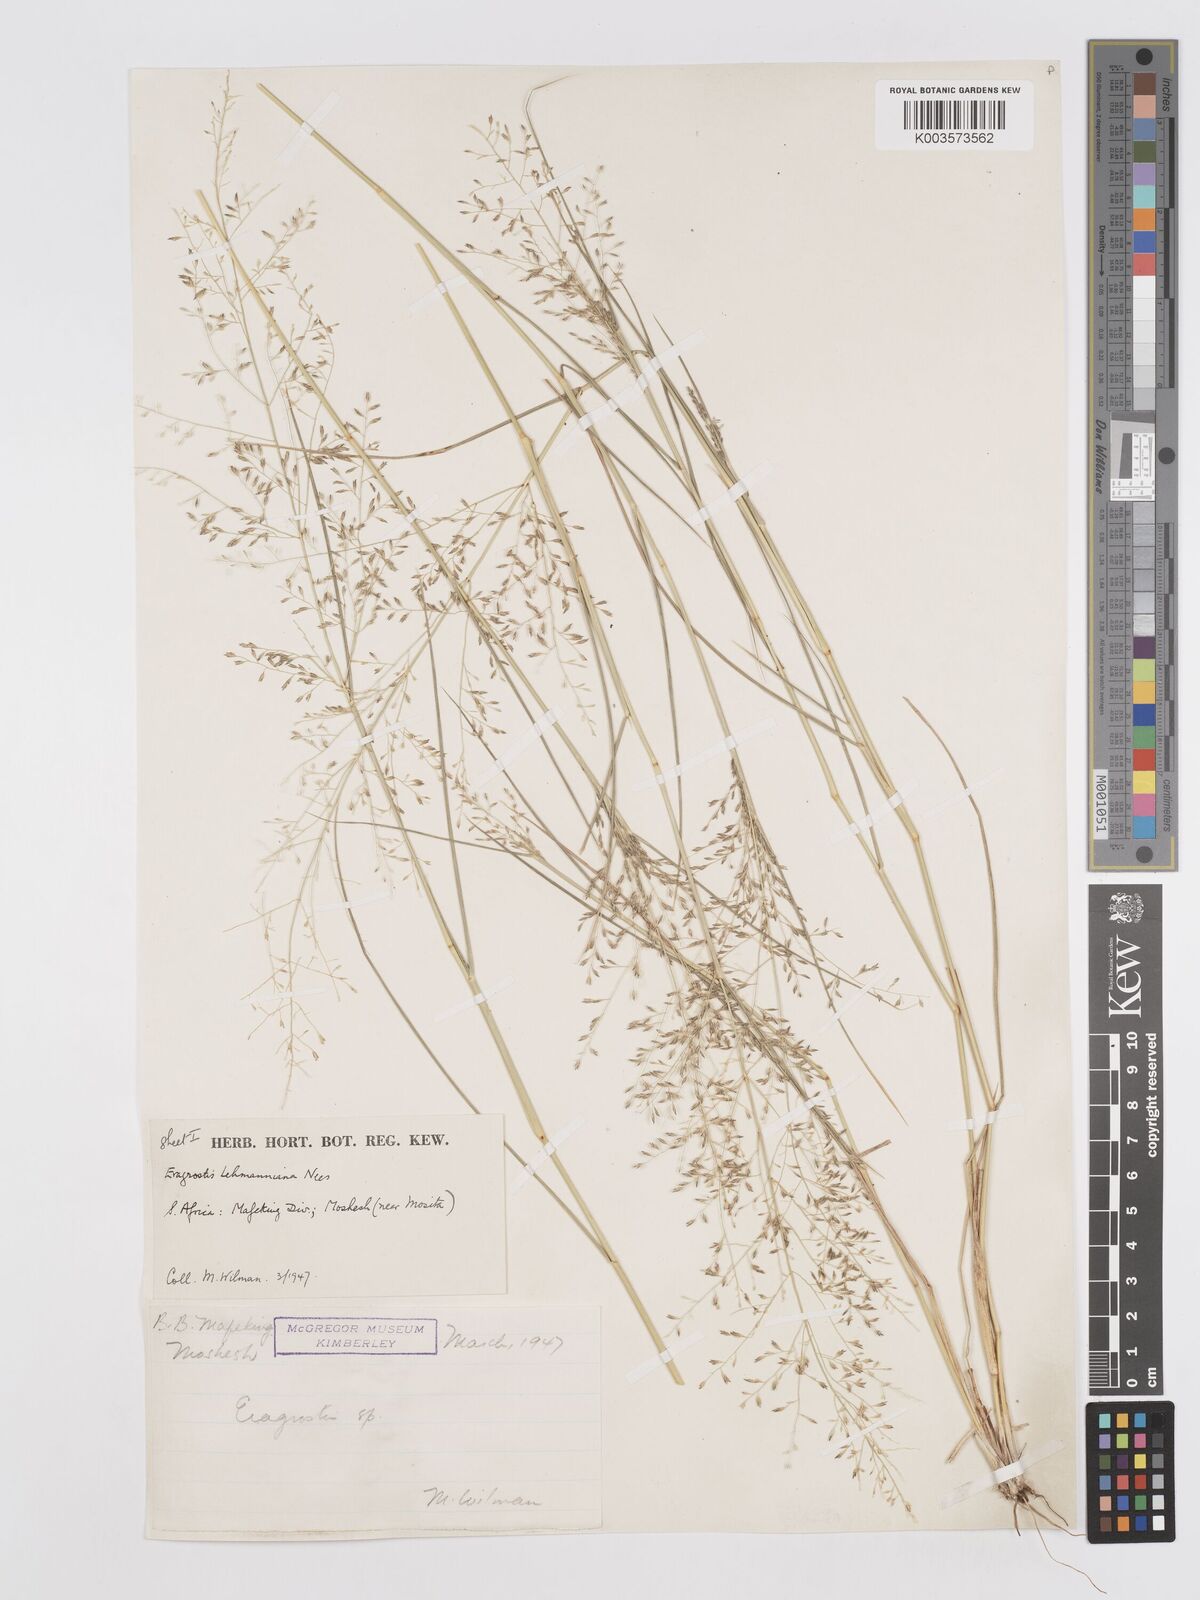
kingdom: Plantae
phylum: Tracheophyta
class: Liliopsida
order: Poales
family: Poaceae
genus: Eragrostis
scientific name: Eragrostis lehmanniana
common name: Lehmann lovegrass
